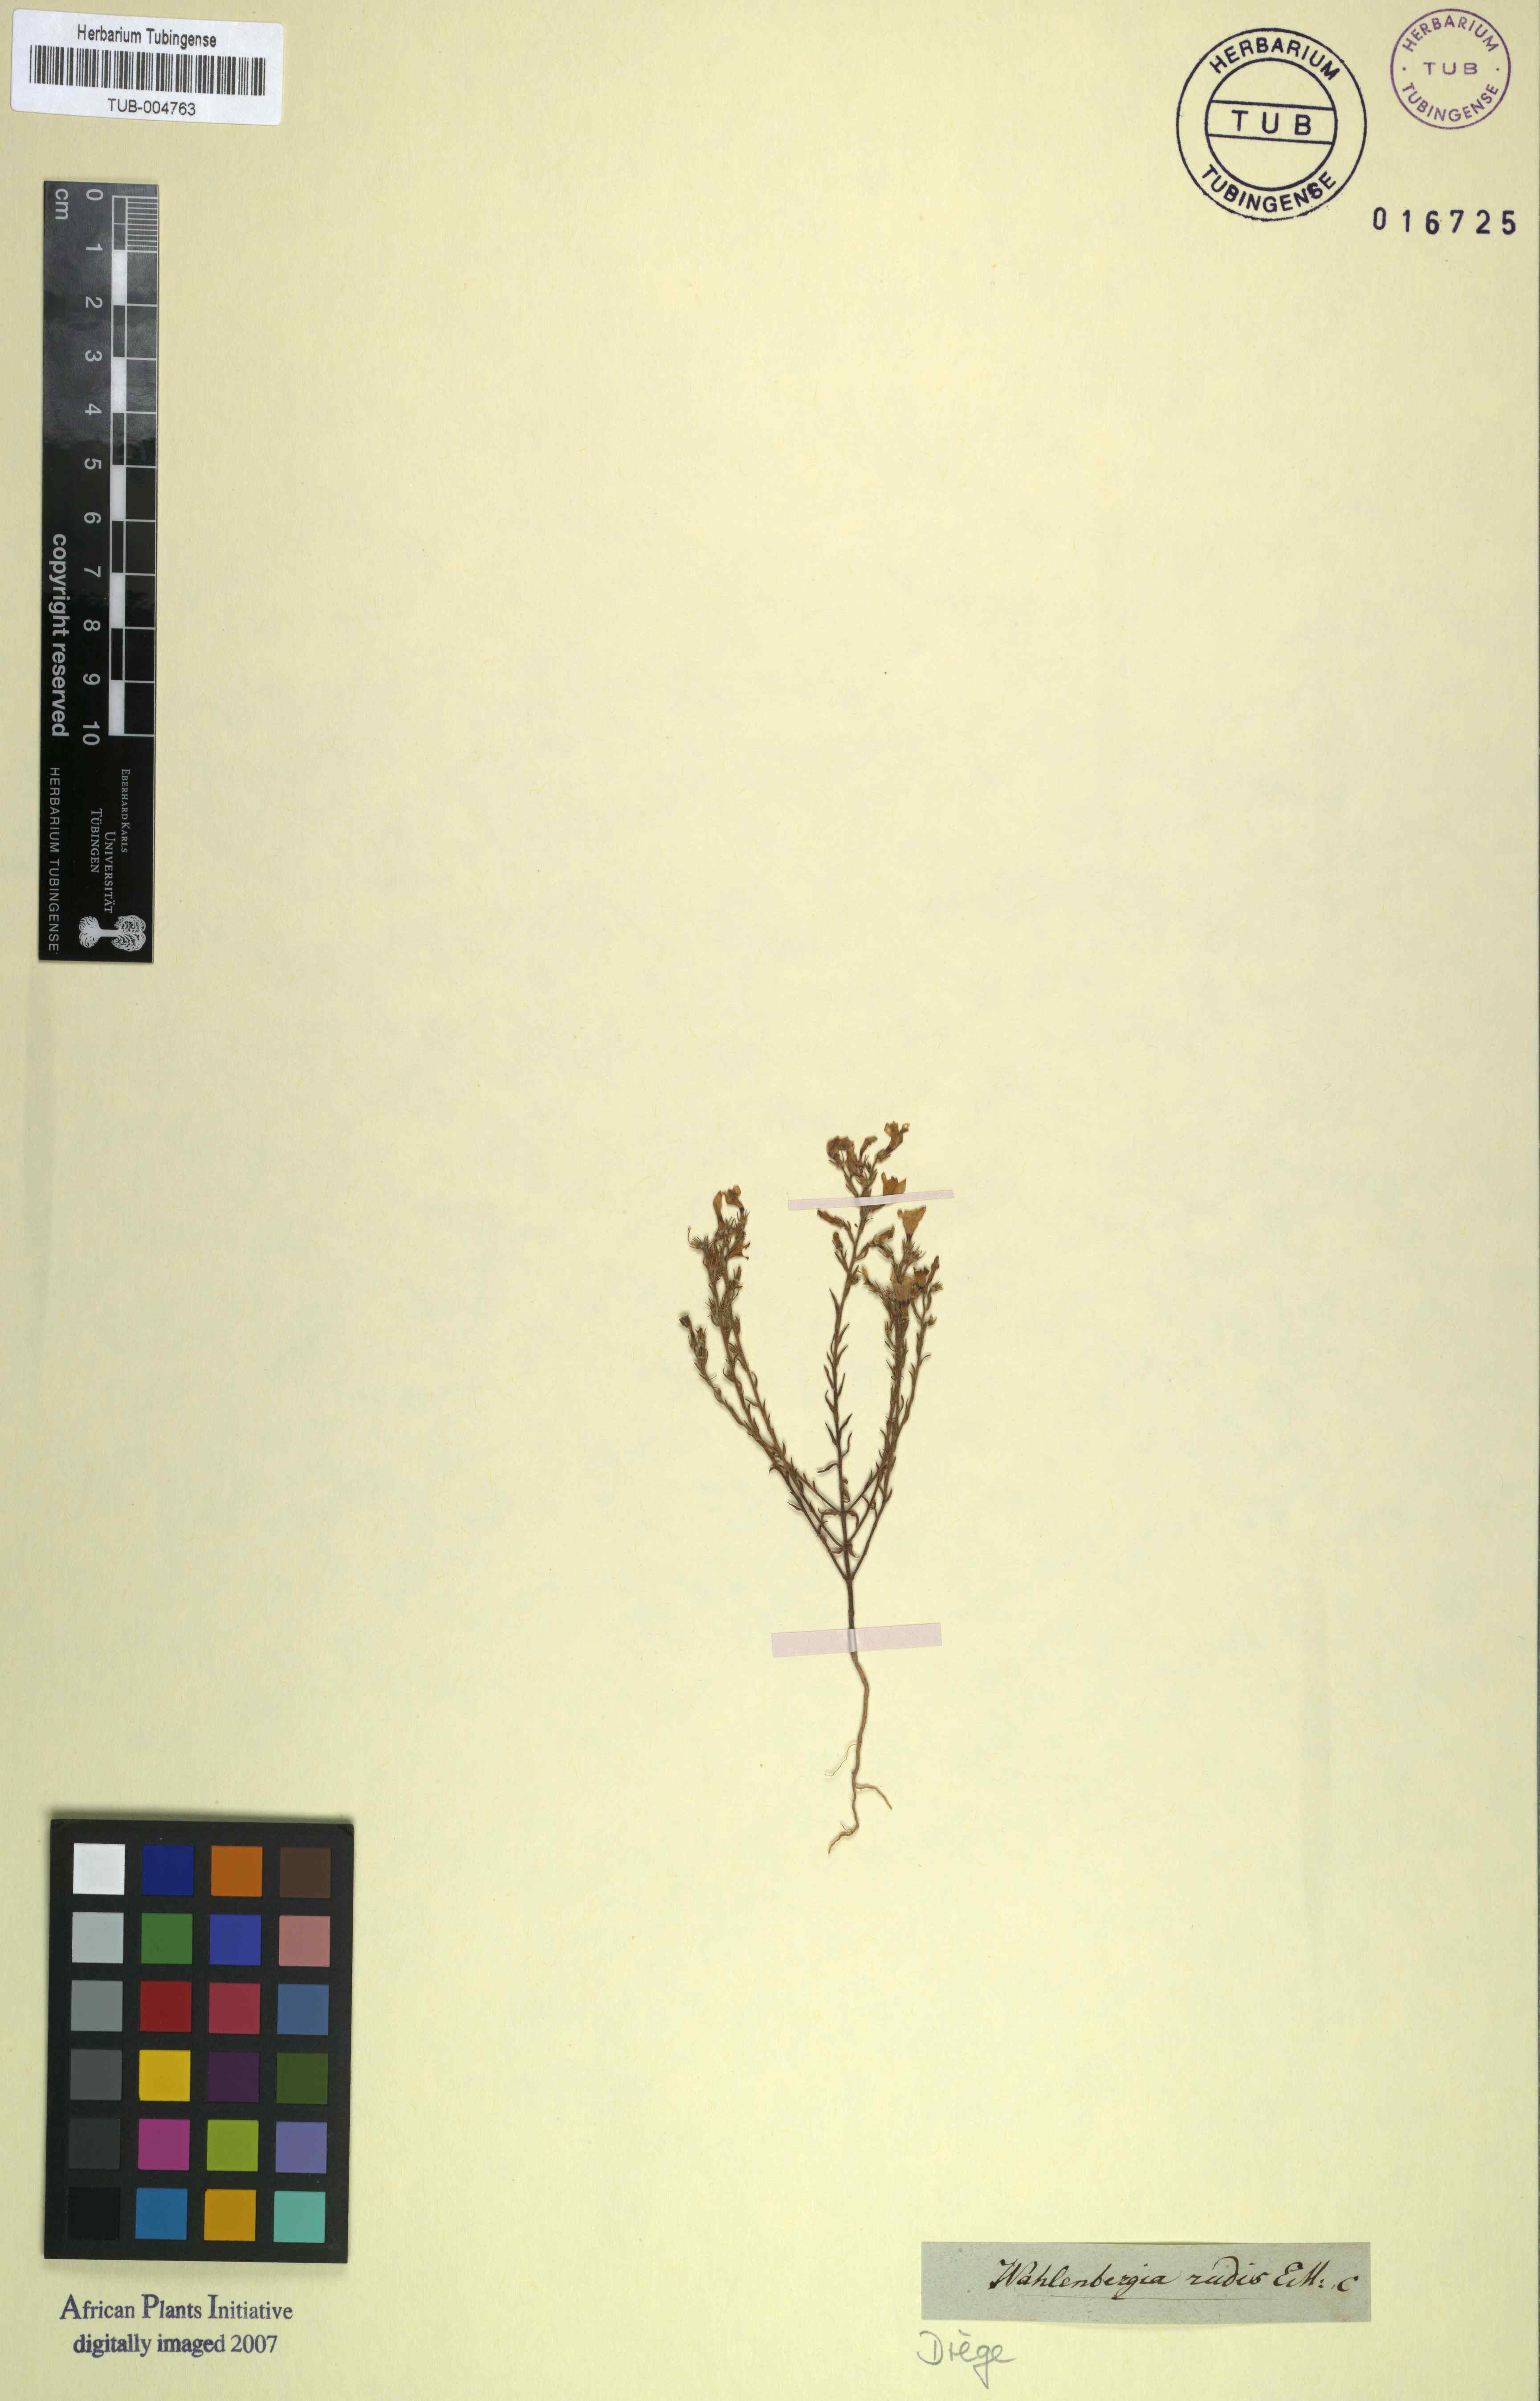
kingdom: Plantae
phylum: Tracheophyta
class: Magnoliopsida
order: Asterales
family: Campanulaceae
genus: Wahlenbergia
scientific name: Wahlenbergia paniculata
